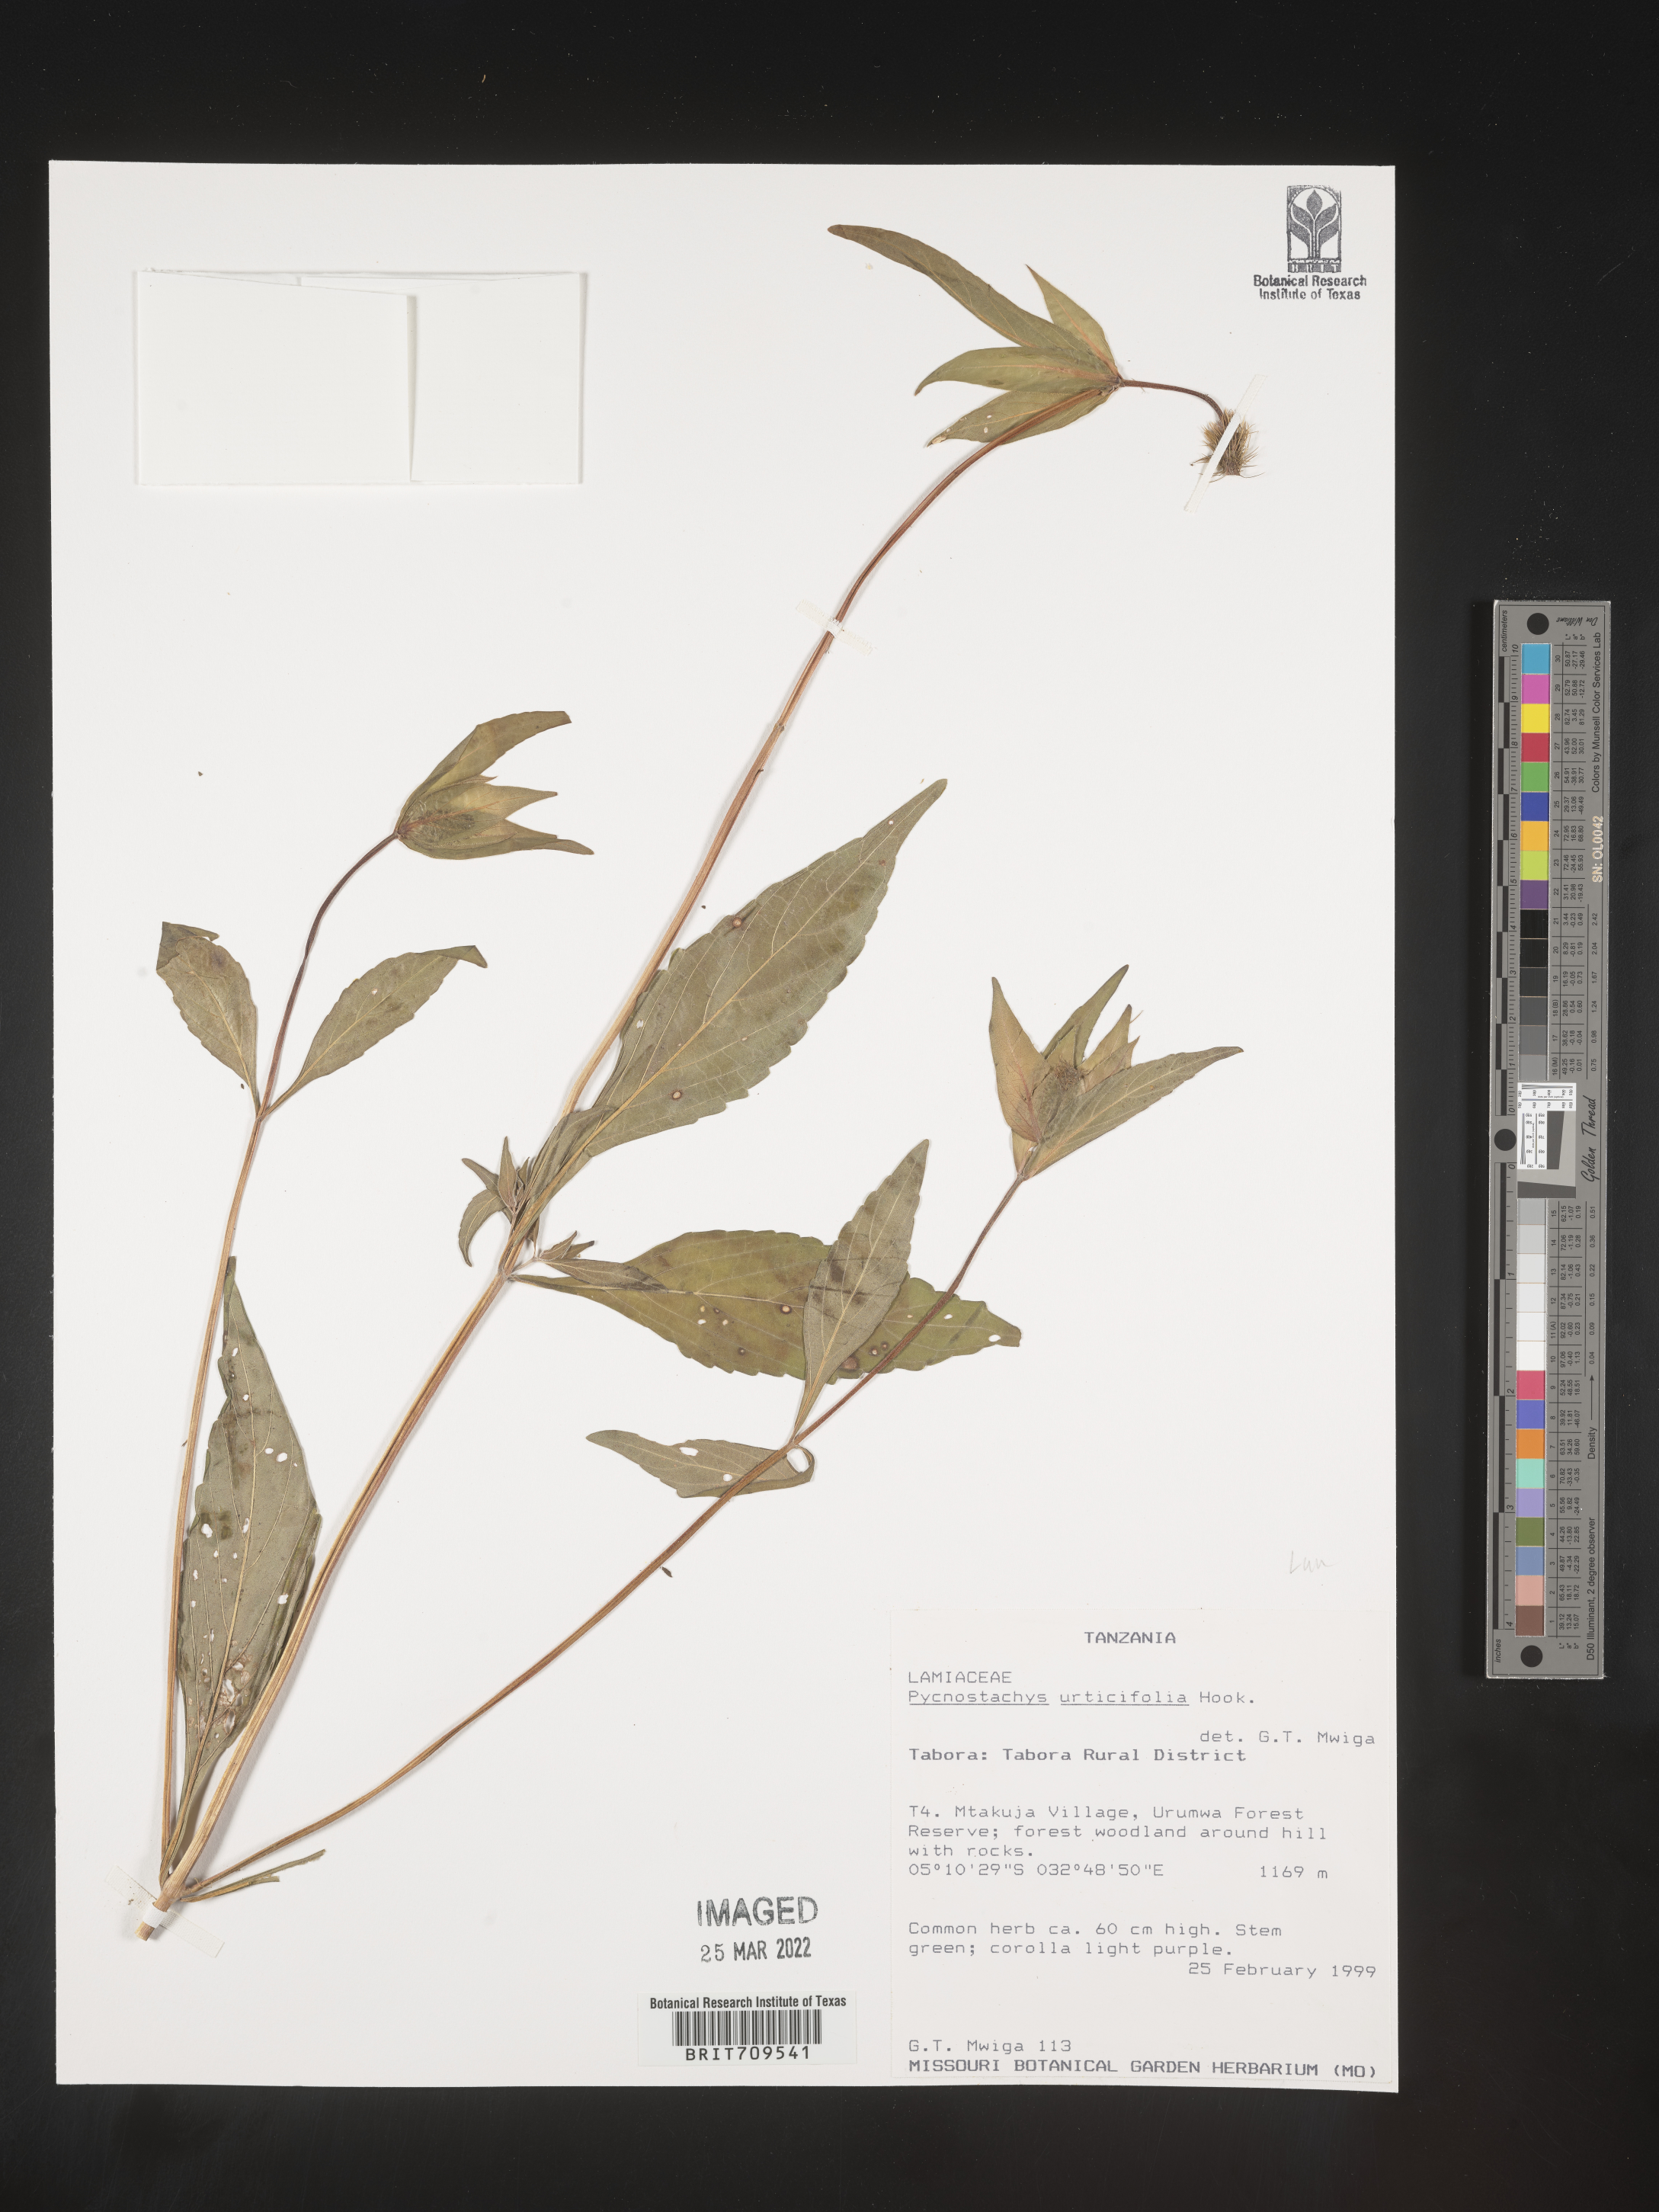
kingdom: Plantae
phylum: Tracheophyta
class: Magnoliopsida
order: Lamiales
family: Lamiaceae
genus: Coleus
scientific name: Coleus
